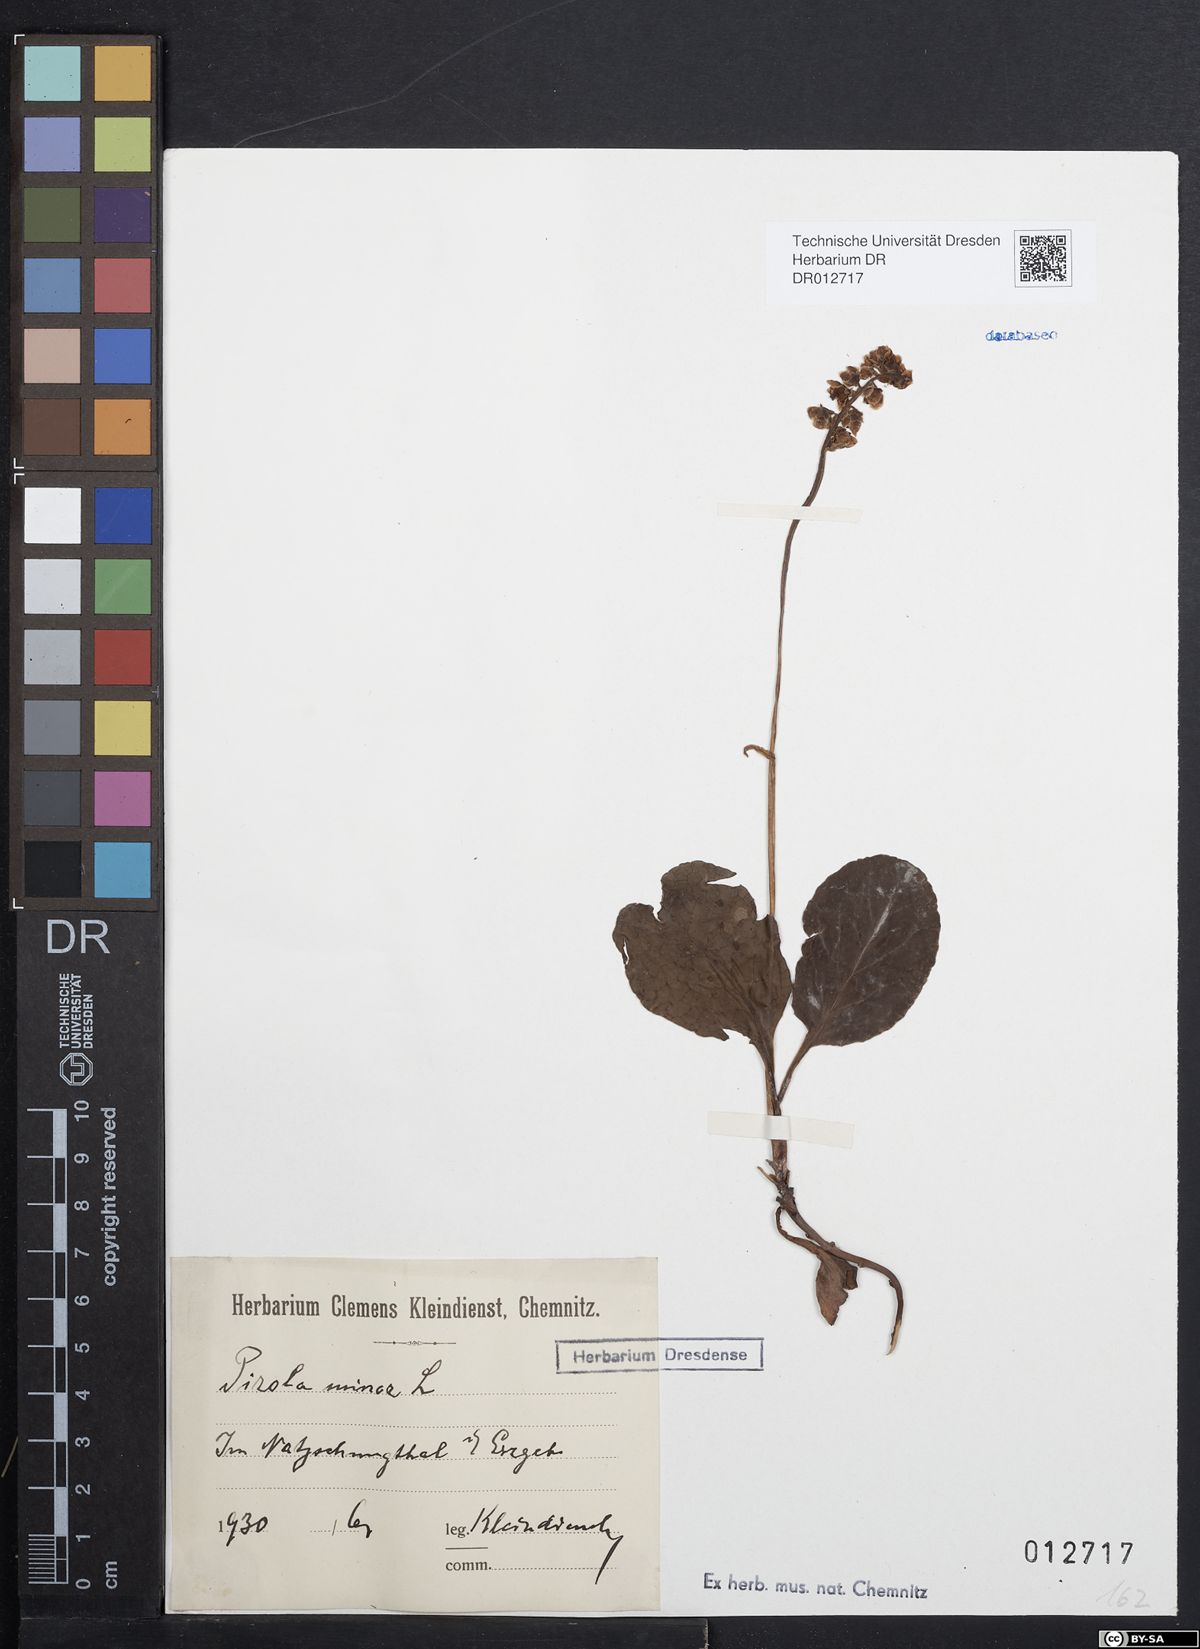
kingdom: Plantae
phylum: Tracheophyta
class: Magnoliopsida
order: Ericales
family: Ericaceae
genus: Pyrola
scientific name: Pyrola minor
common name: Common wintergreen
